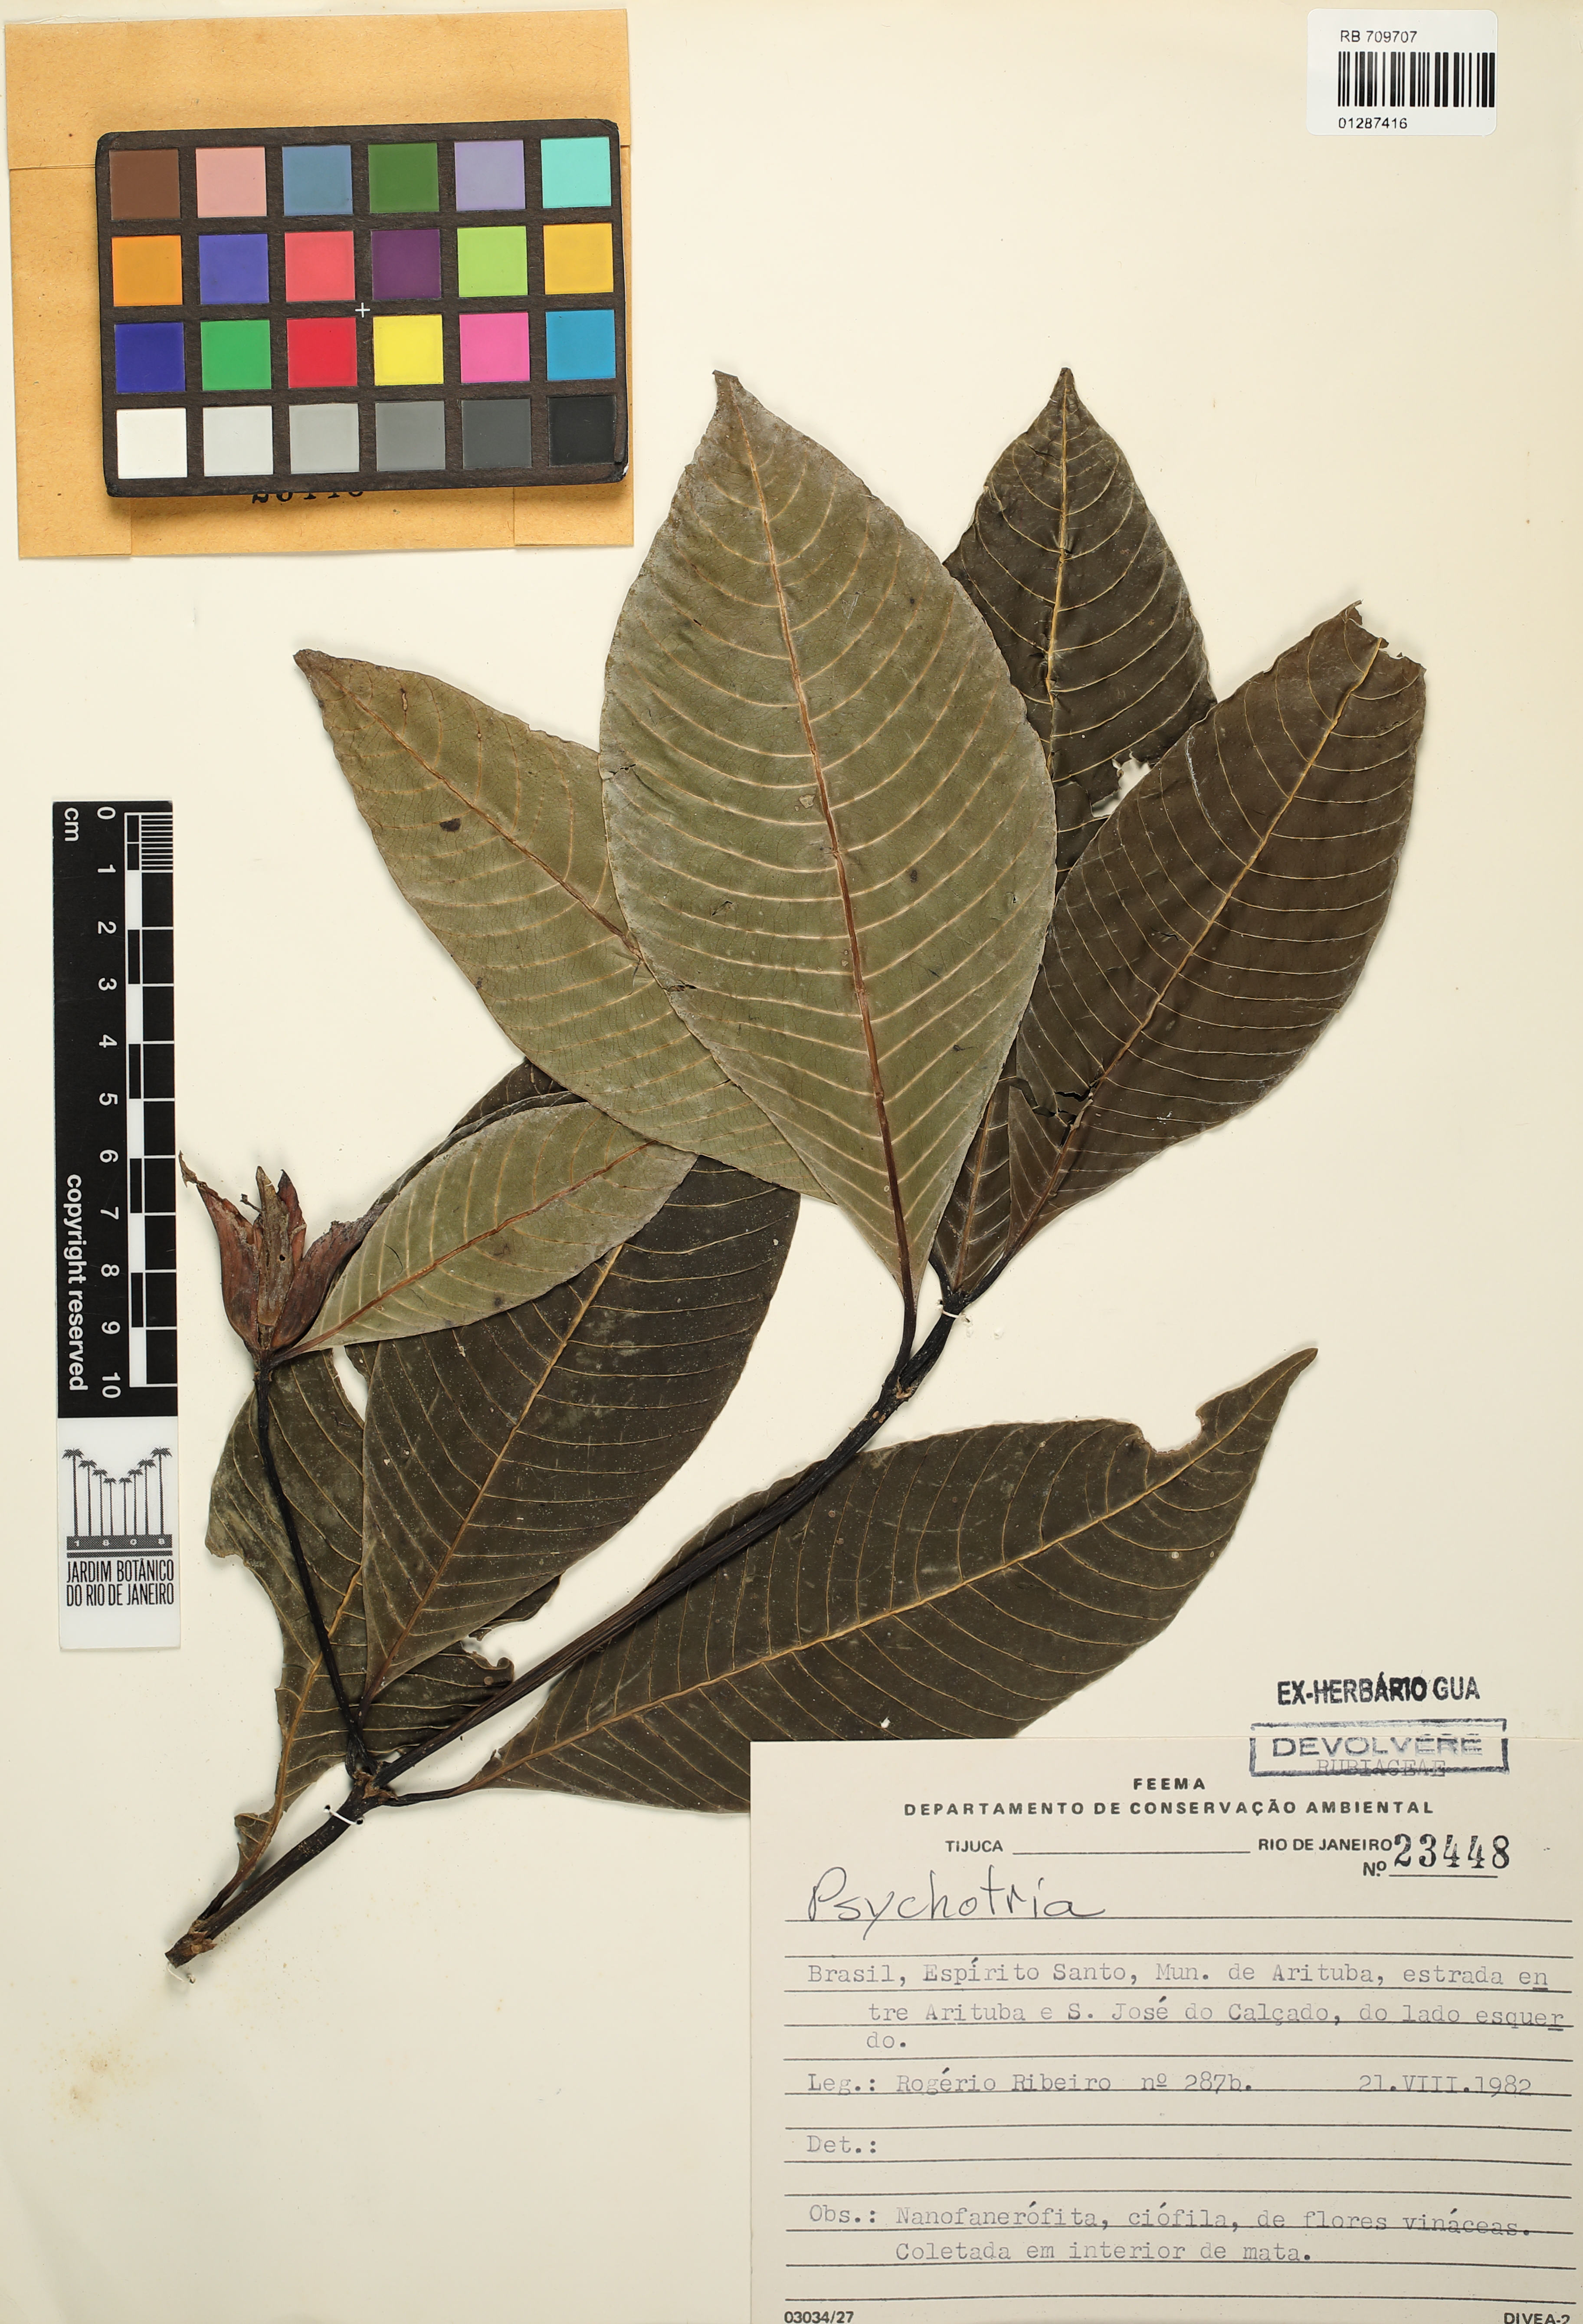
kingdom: Plantae
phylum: Tracheophyta
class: Magnoliopsida
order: Gentianales
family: Rubiaceae
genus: Psychotria
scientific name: Psychotria
